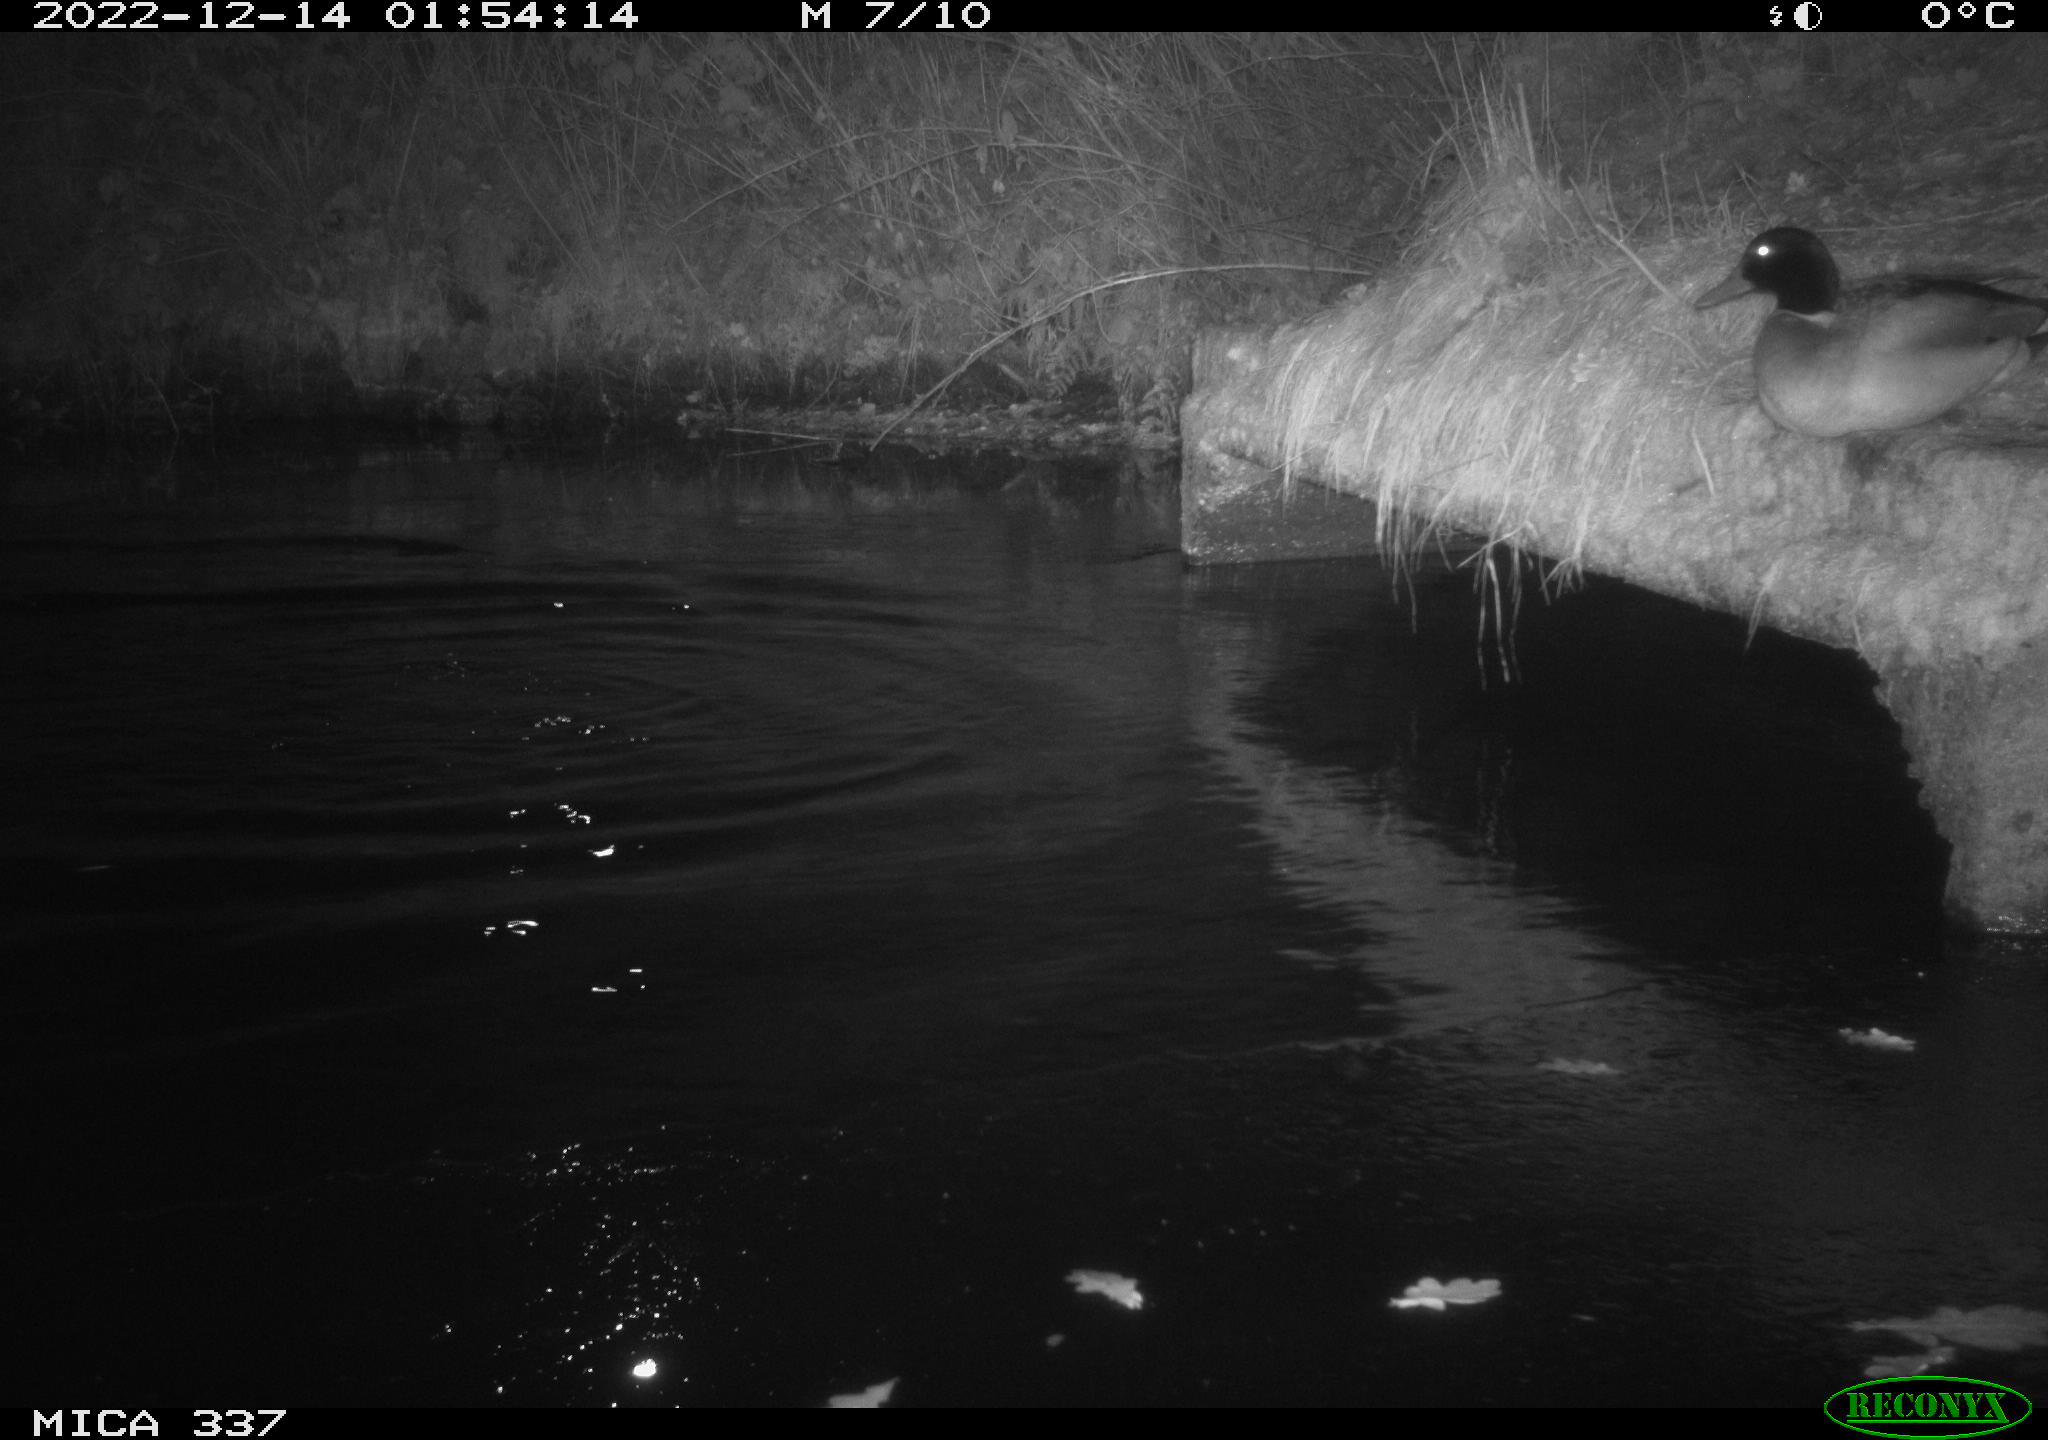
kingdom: Animalia
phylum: Chordata
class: Aves
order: Anseriformes
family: Anatidae
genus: Anas
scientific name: Anas
